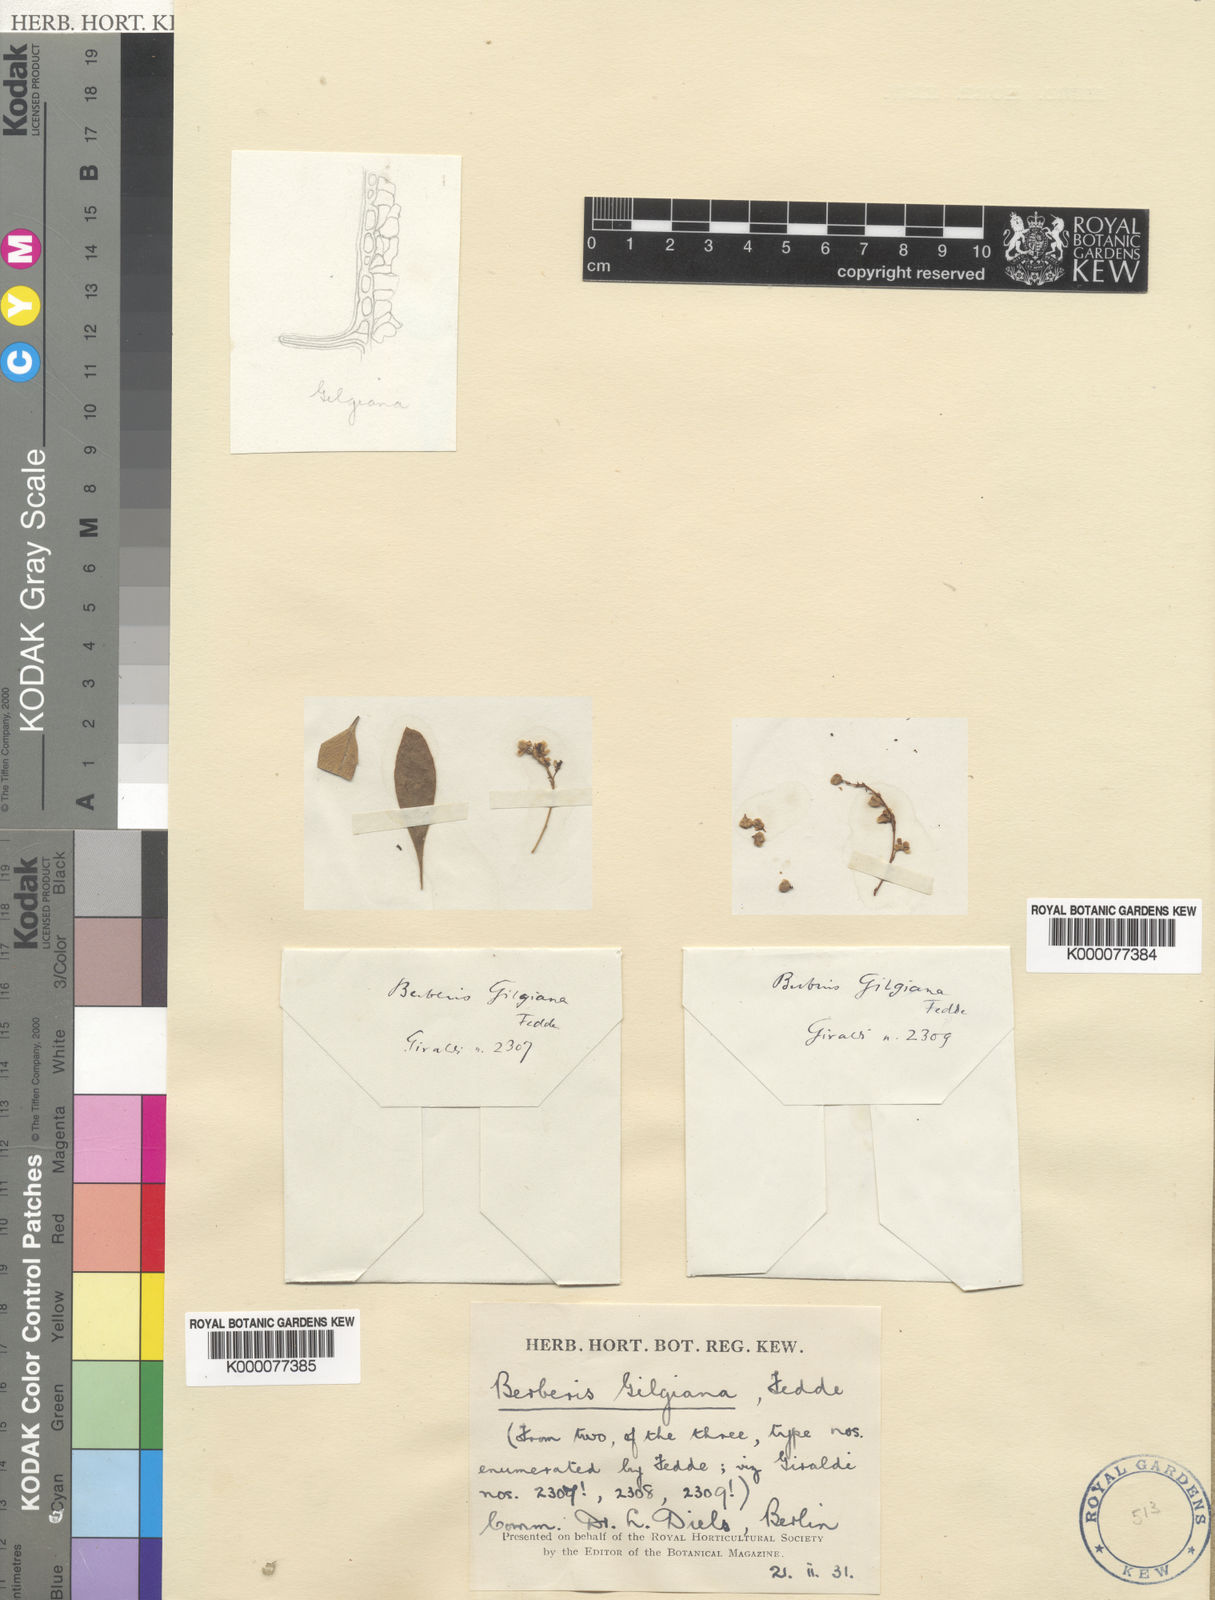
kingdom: Plantae
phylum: Tracheophyta
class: Magnoliopsida
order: Ranunculales
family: Berberidaceae
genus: Berberis
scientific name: Berberis gilgiana
